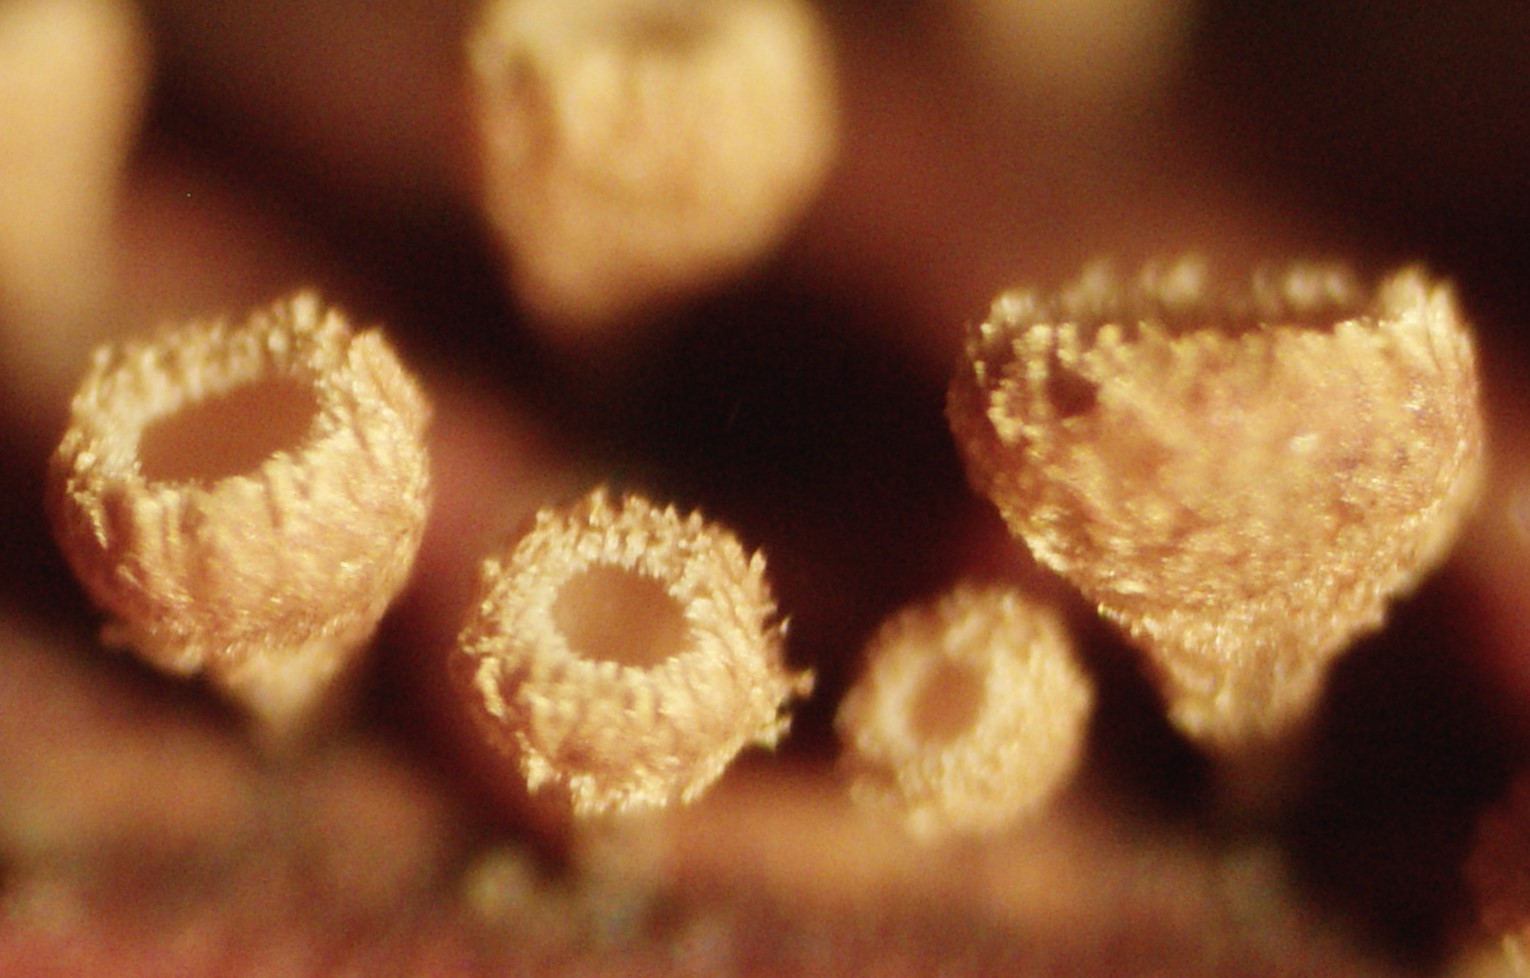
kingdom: Fungi
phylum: Ascomycota
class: Leotiomycetes
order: Helotiales
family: Lachnaceae
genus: Brunnipila
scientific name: Brunnipila clandestina
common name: hindbær-frynseskive
